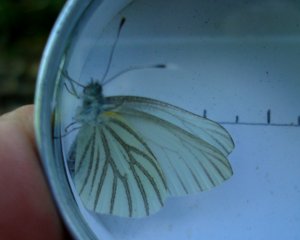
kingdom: Animalia
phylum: Arthropoda
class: Insecta
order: Lepidoptera
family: Pieridae
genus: Pieris
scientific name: Pieris oleracea
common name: Mustard White
